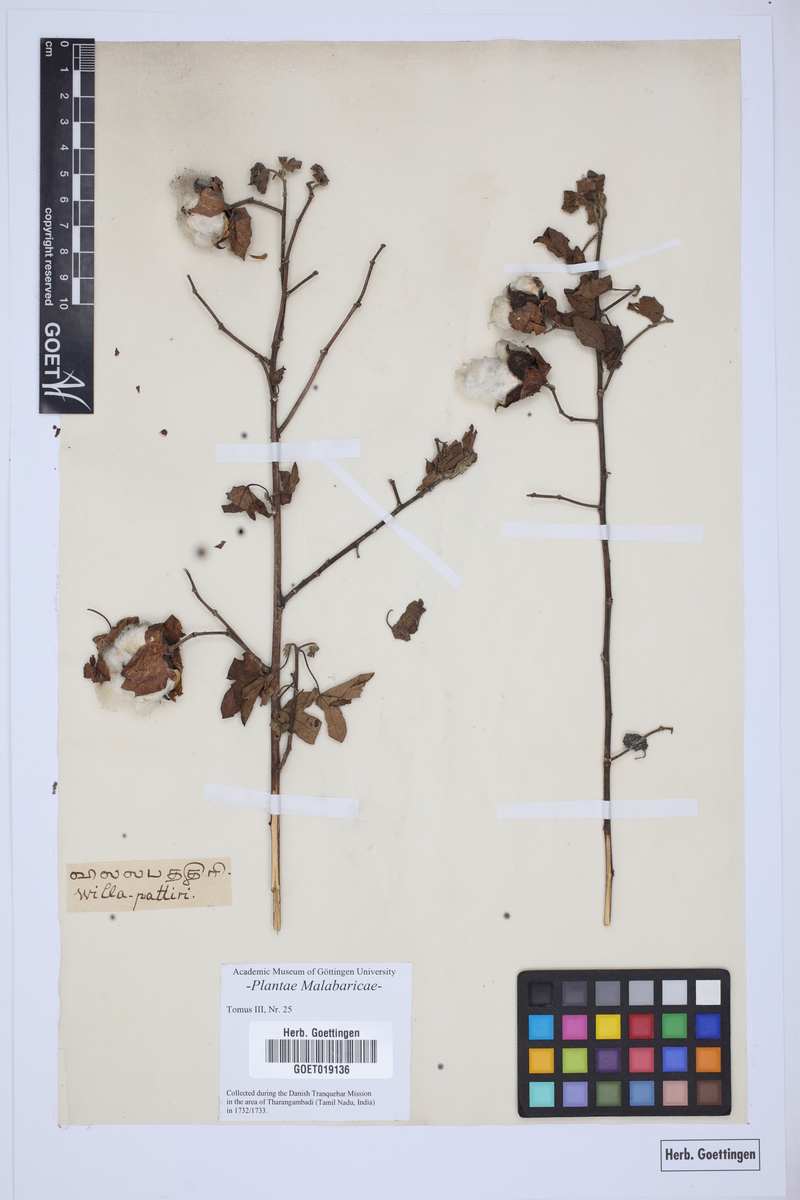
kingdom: Plantae
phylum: Tracheophyta
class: Magnoliopsida
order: Malvales
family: Malvaceae
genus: Gossypium
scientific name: Gossypium
